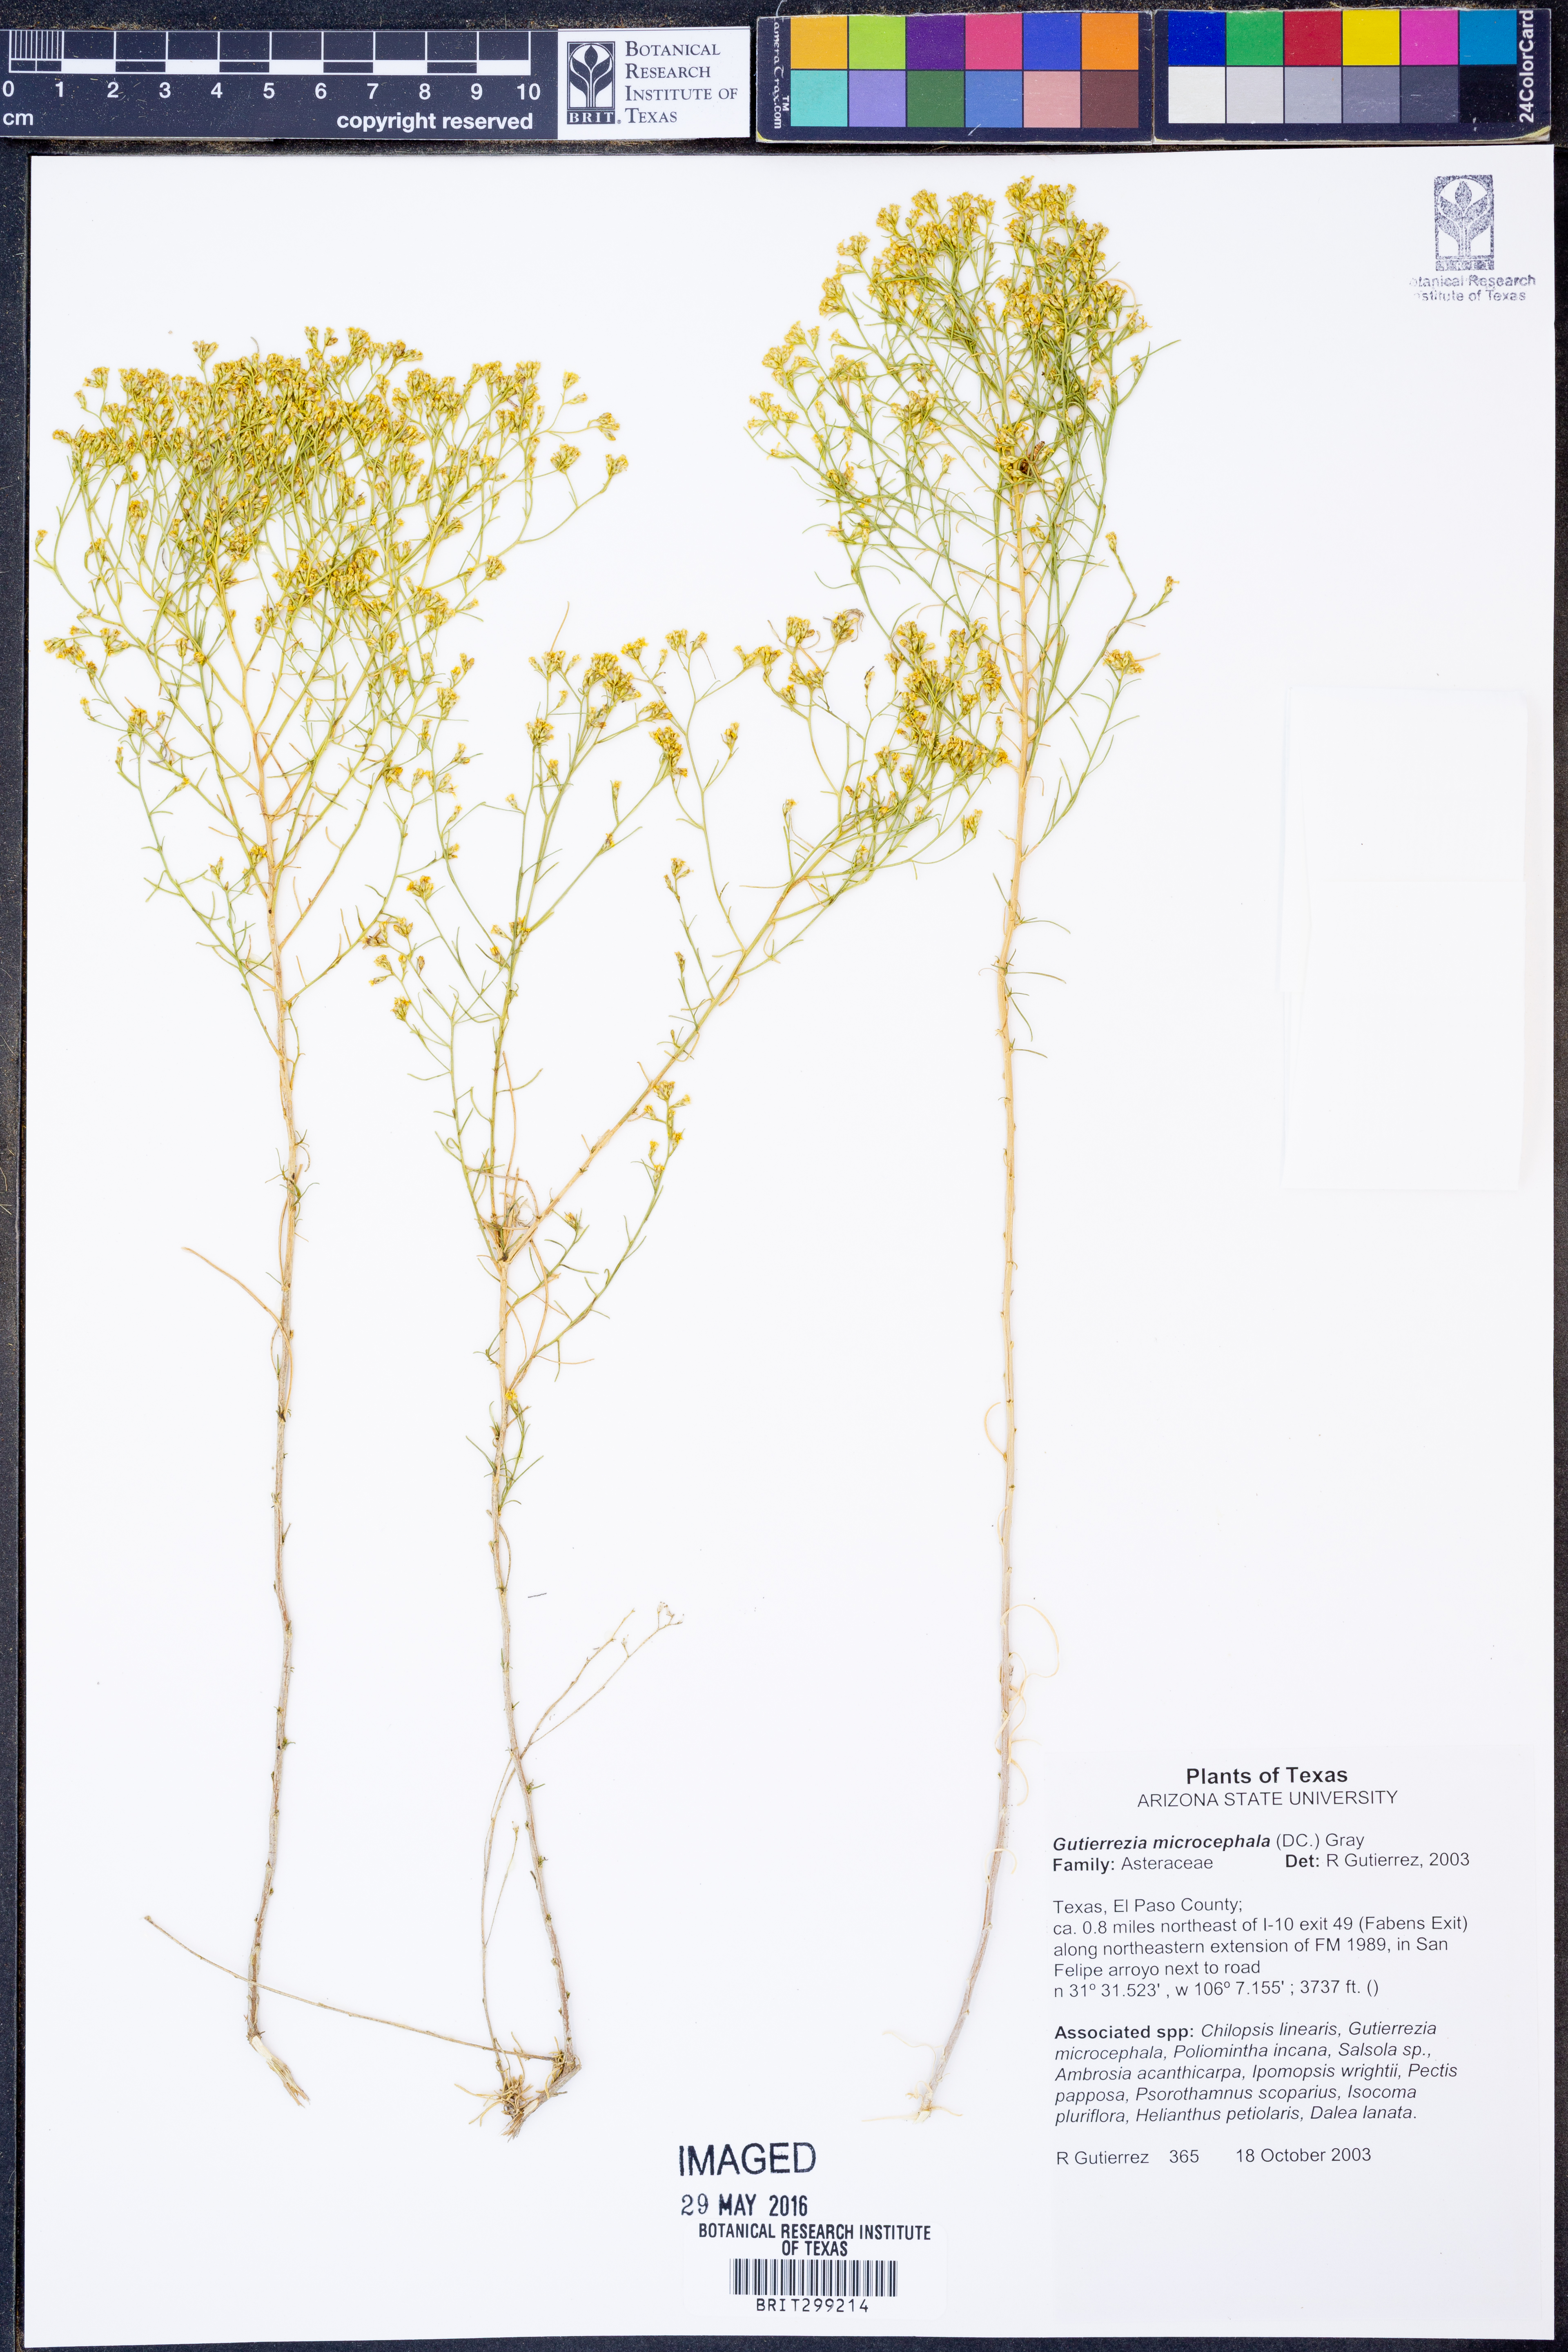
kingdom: Plantae
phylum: Tracheophyta
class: Magnoliopsida
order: Asterales
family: Asteraceae
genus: Gutierrezia
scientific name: Gutierrezia microcephala
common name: Thread snakeweed
